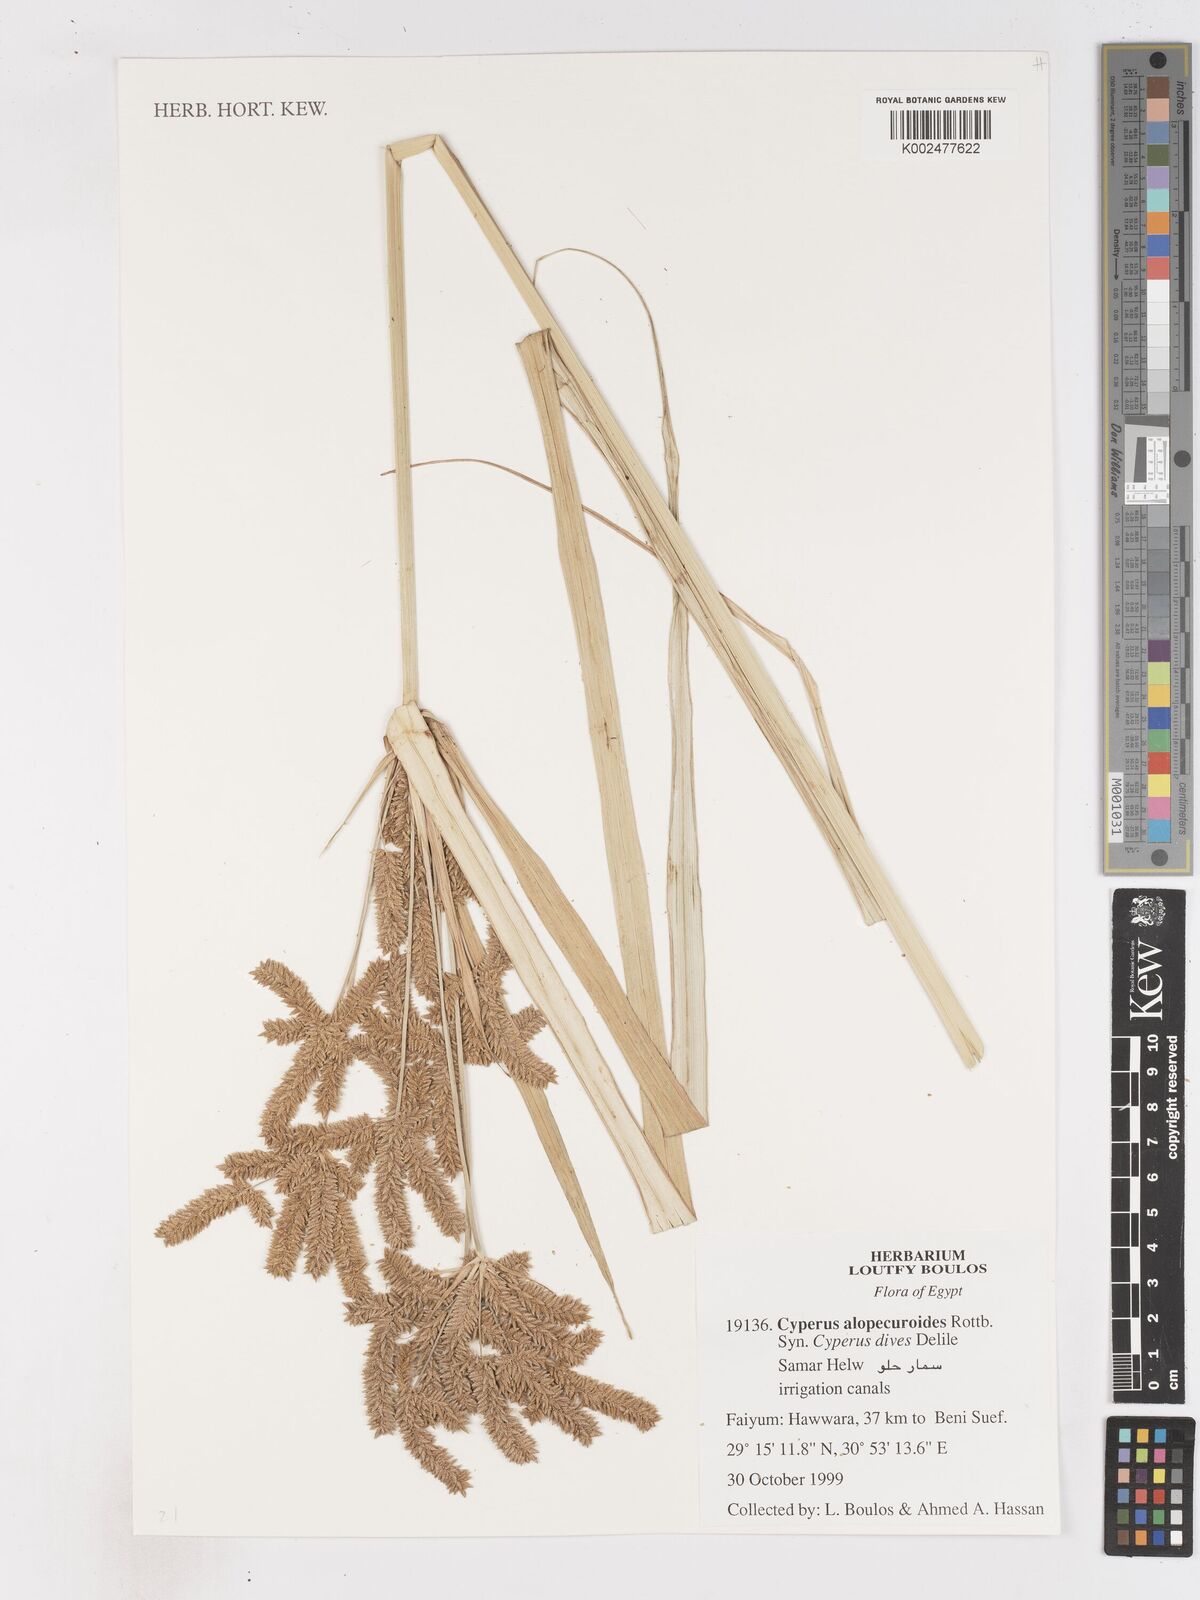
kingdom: Plantae
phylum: Tracheophyta
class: Liliopsida
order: Poales
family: Cyperaceae
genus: Cyperus
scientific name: Cyperus alopecuroides
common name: Foxtail flatsedge
